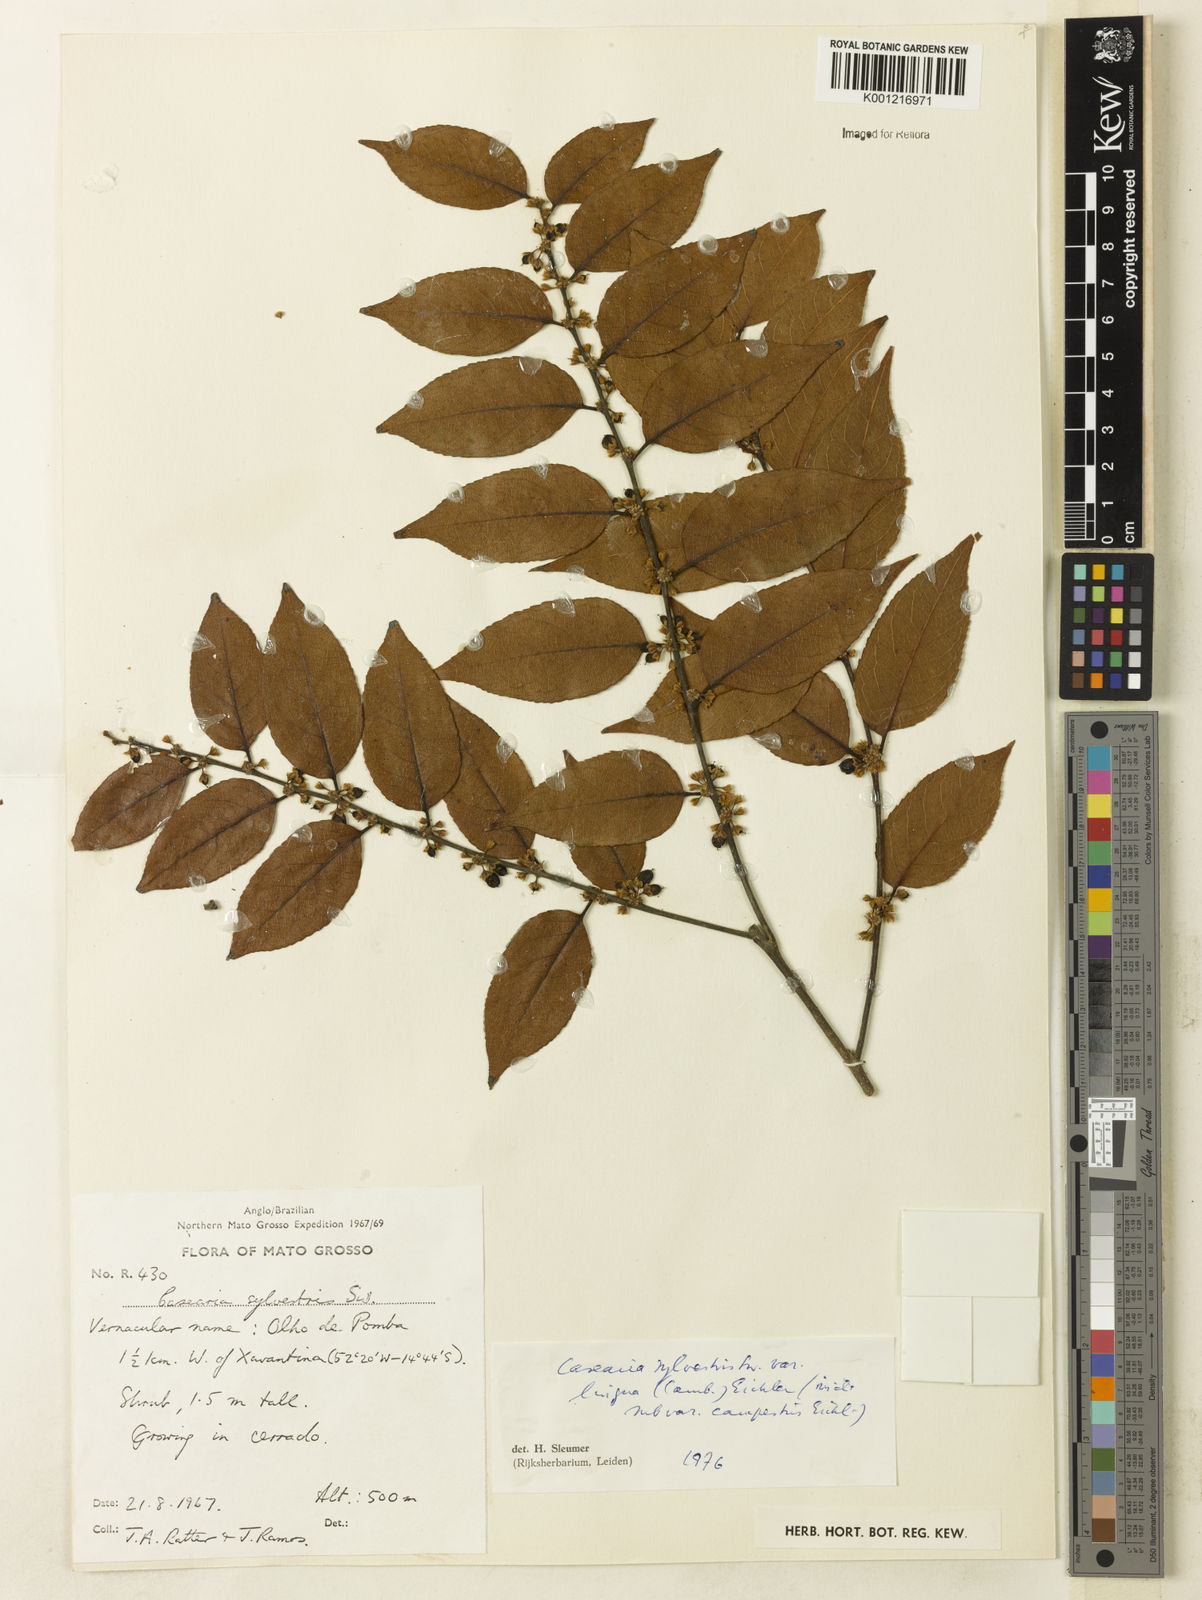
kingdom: Plantae
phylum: Tracheophyta
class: Magnoliopsida
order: Malpighiales
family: Salicaceae
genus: Casearia
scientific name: Casearia sylvestris
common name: Wild sage
